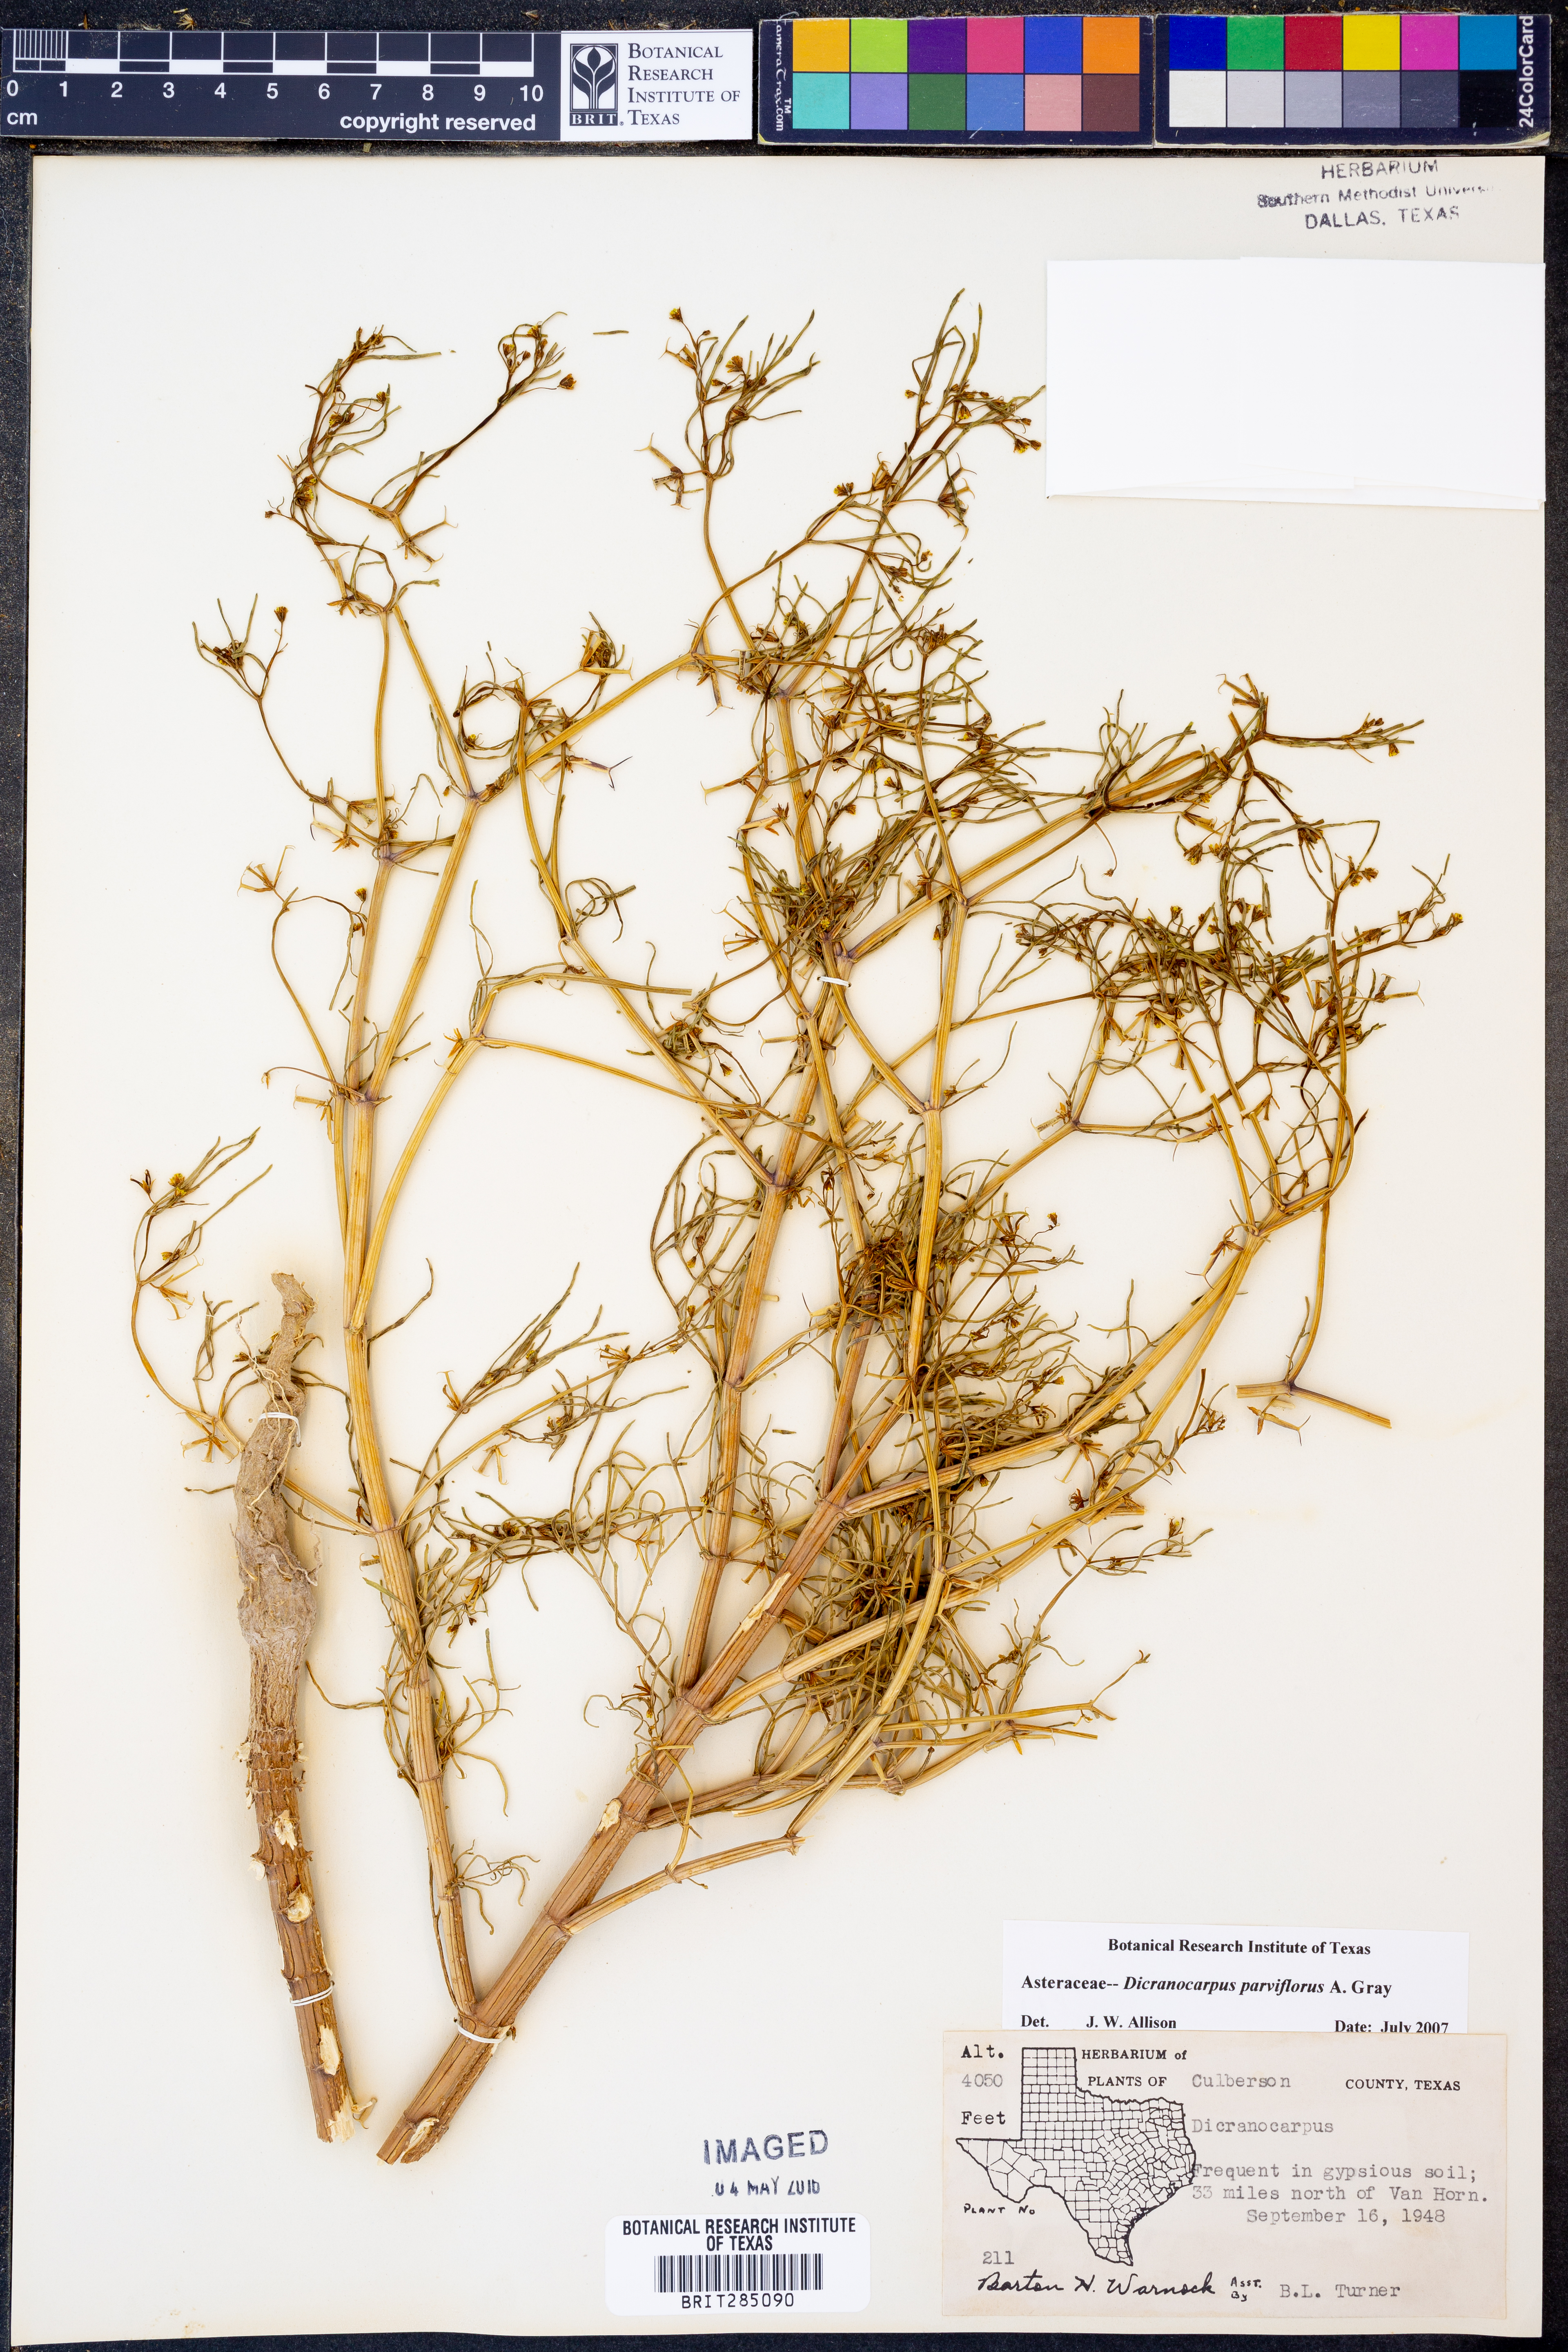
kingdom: Plantae
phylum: Tracheophyta
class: Magnoliopsida
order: Asterales
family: Asteraceae
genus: Dicranocarpus
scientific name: Dicranocarpus parviflorus
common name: Pitchfork
